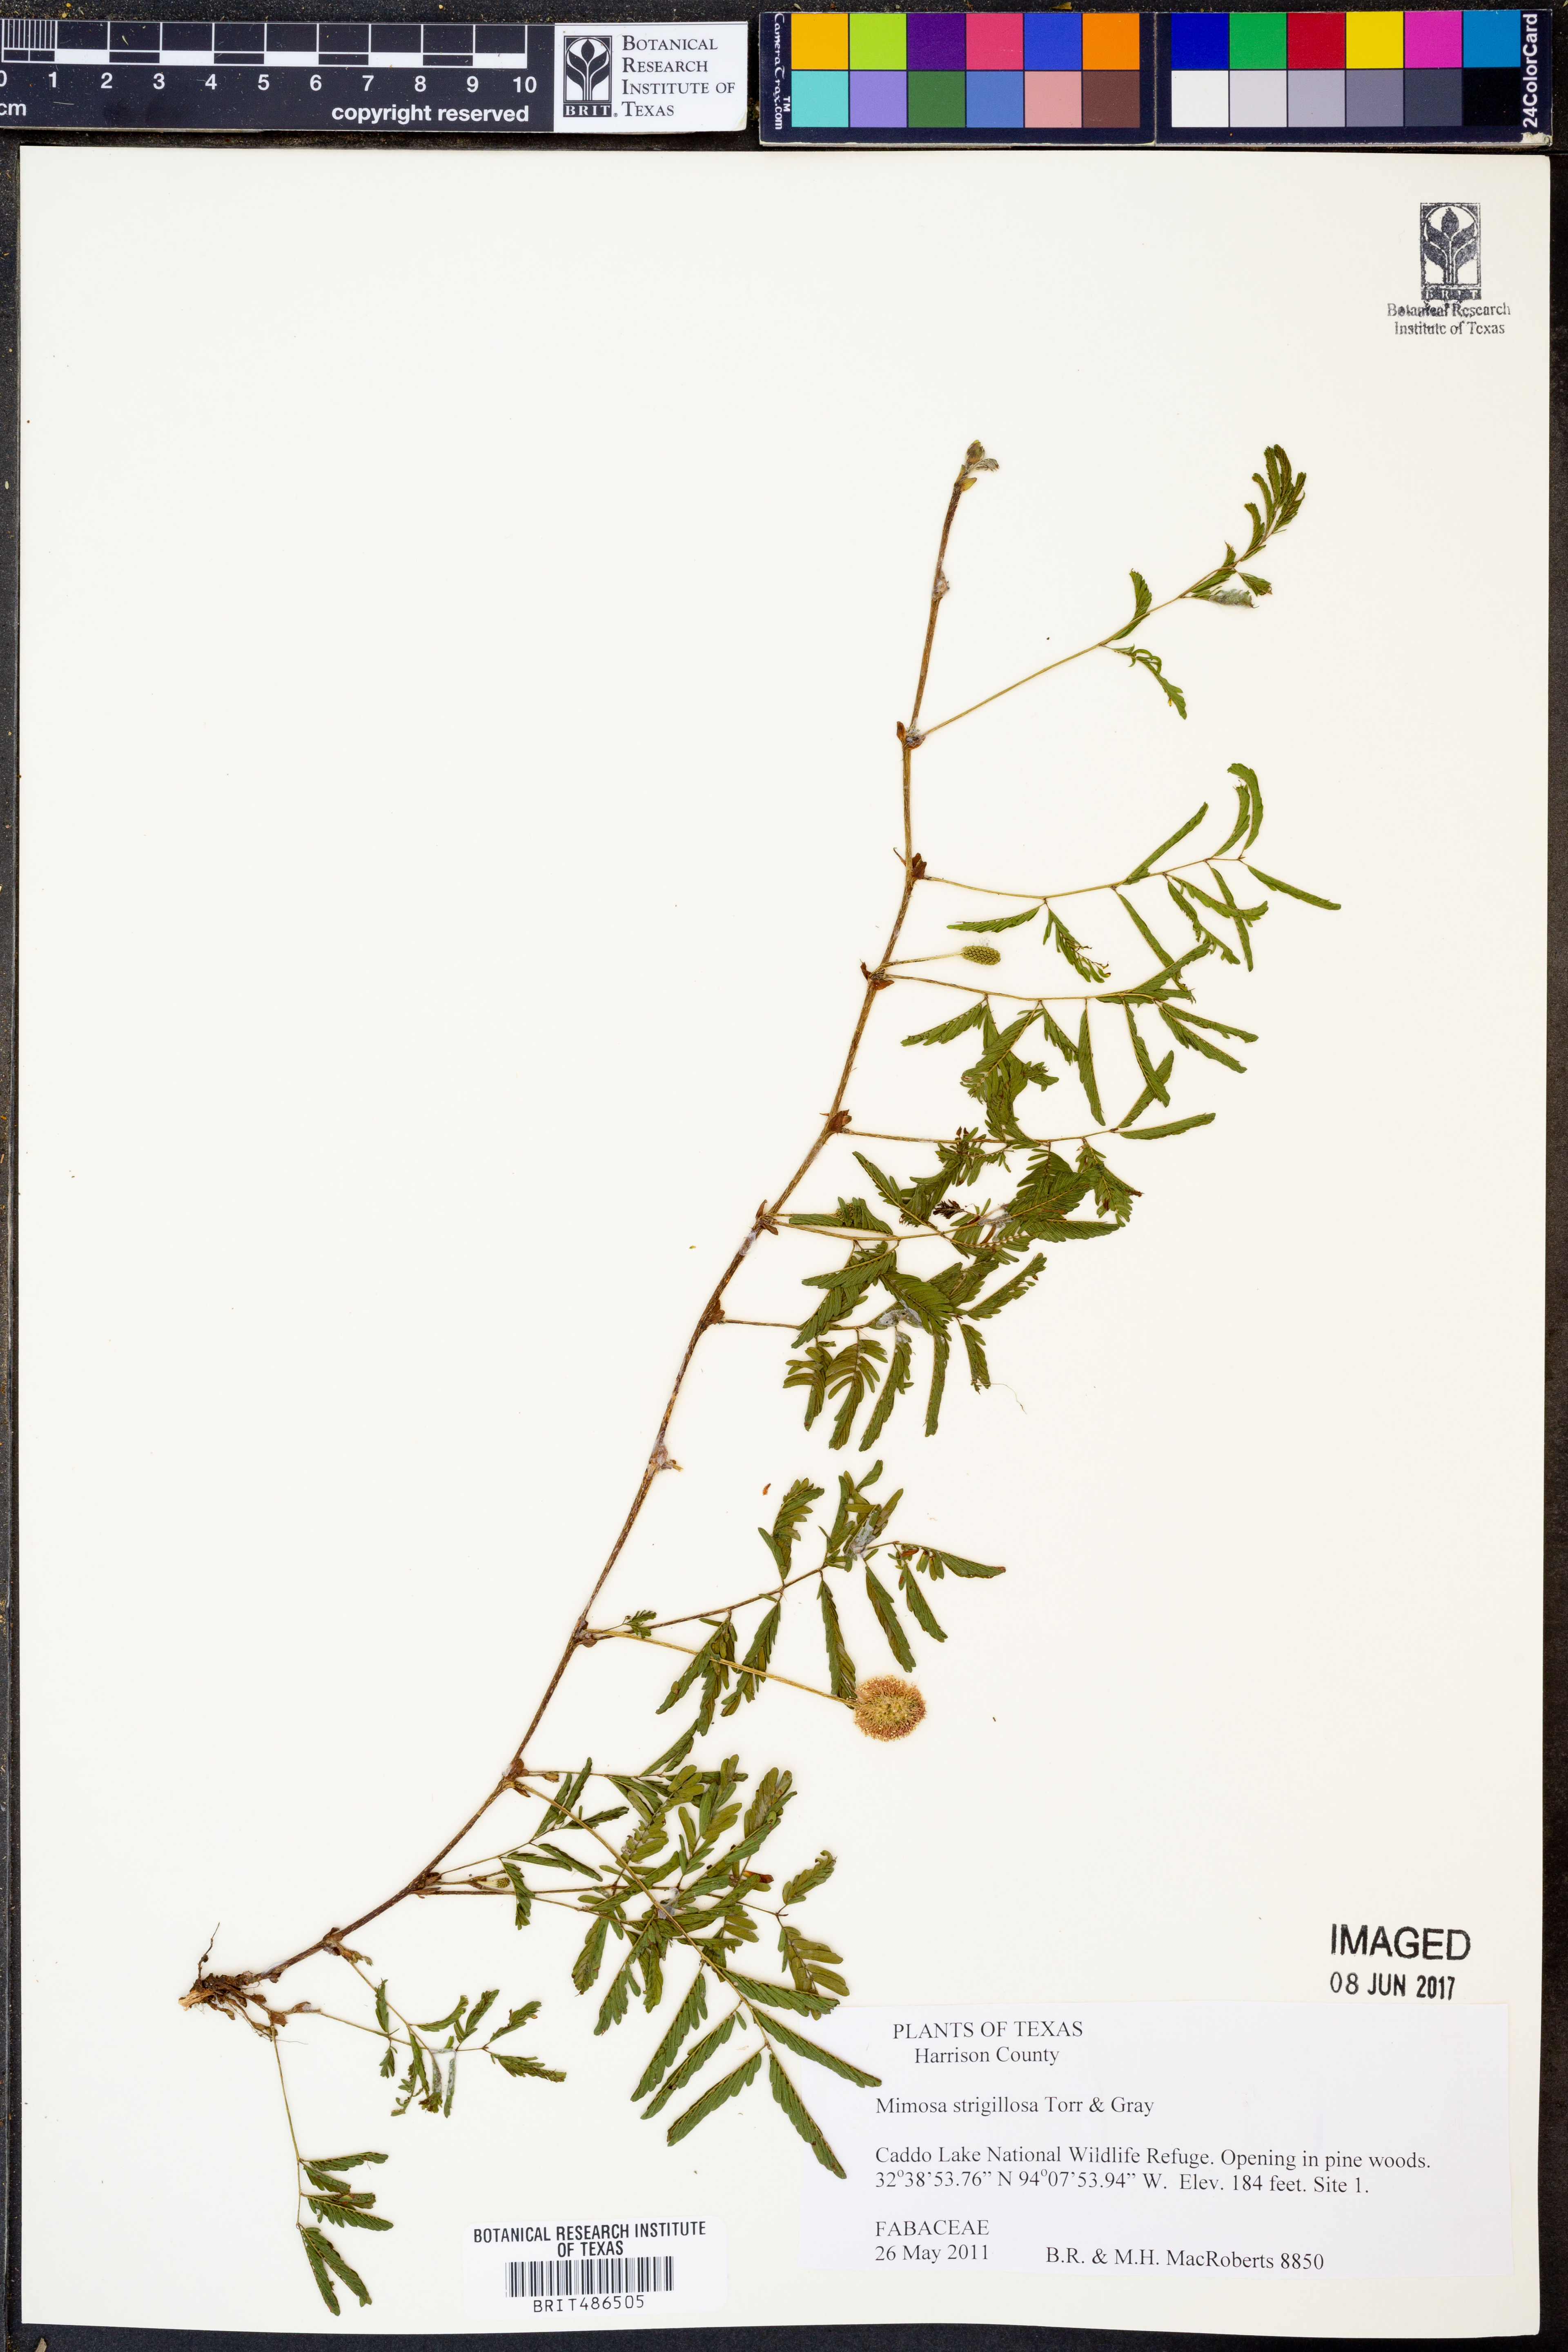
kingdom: Plantae
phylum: Tracheophyta
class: Magnoliopsida
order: Fabales
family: Fabaceae
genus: Mimosa
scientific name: Mimosa strigillosa
